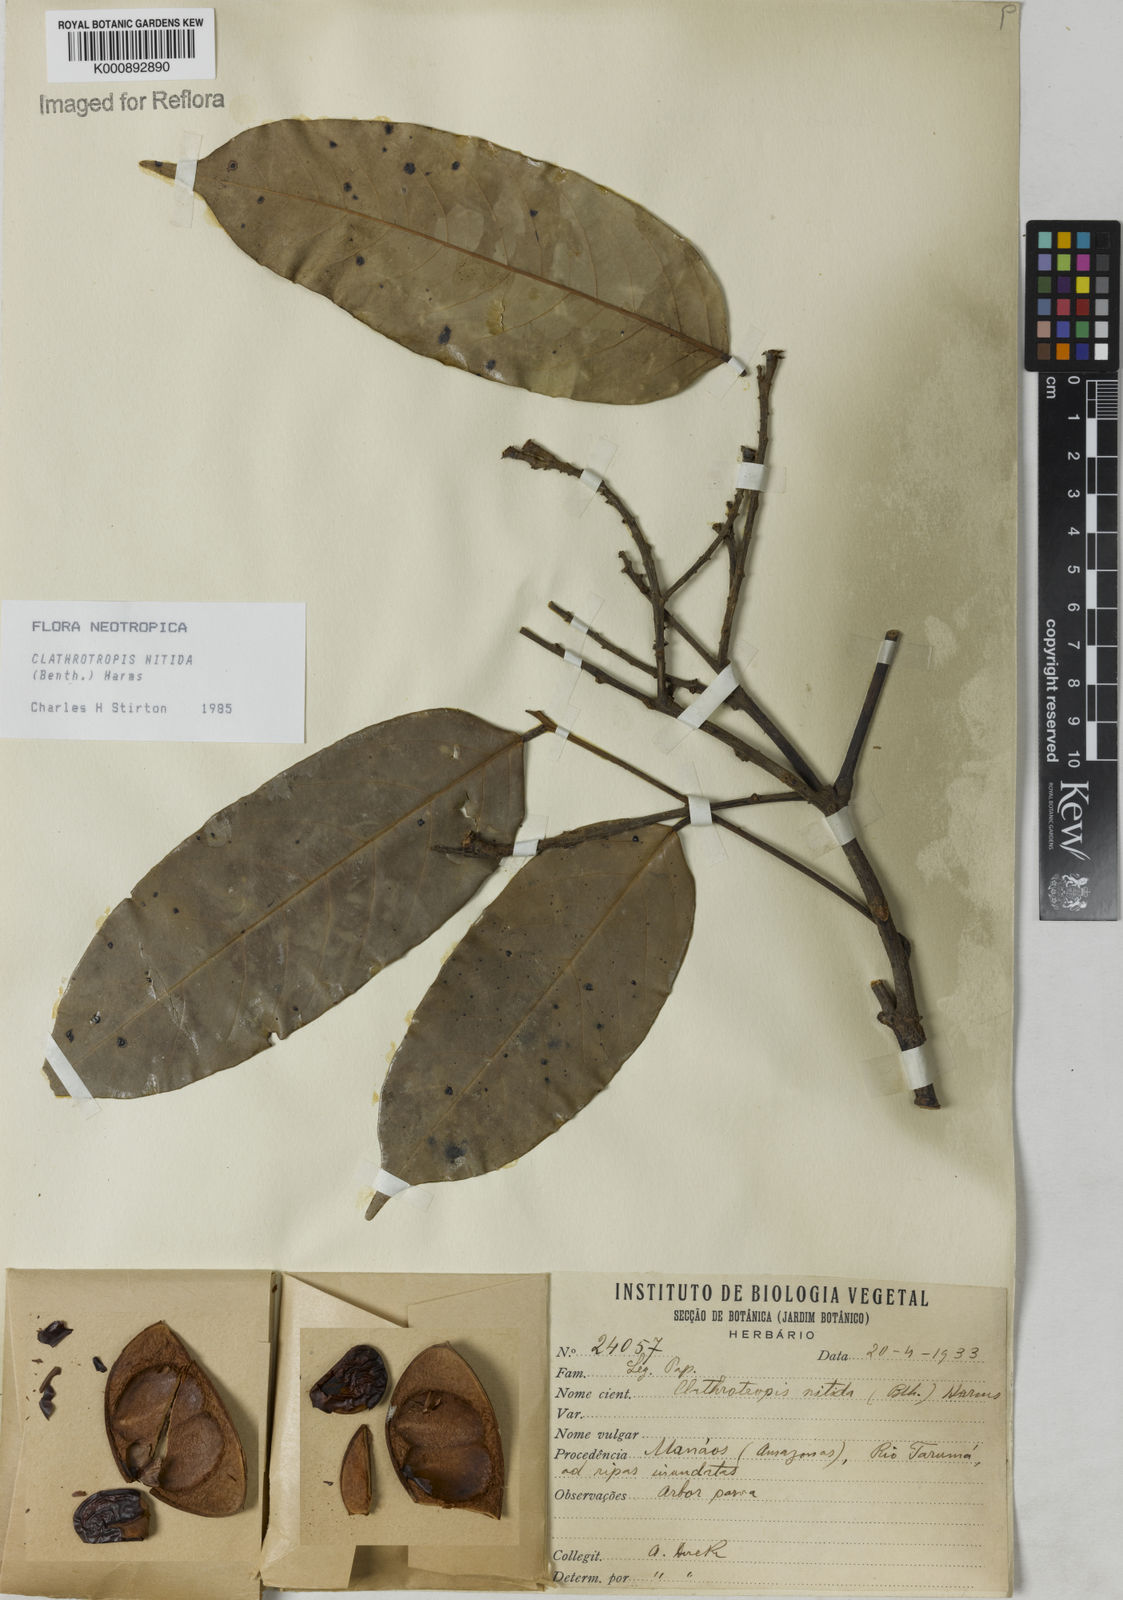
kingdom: Plantae
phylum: Tracheophyta
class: Magnoliopsida
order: Fabales
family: Fabaceae
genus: Clathrotropis
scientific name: Clathrotropis nitida
